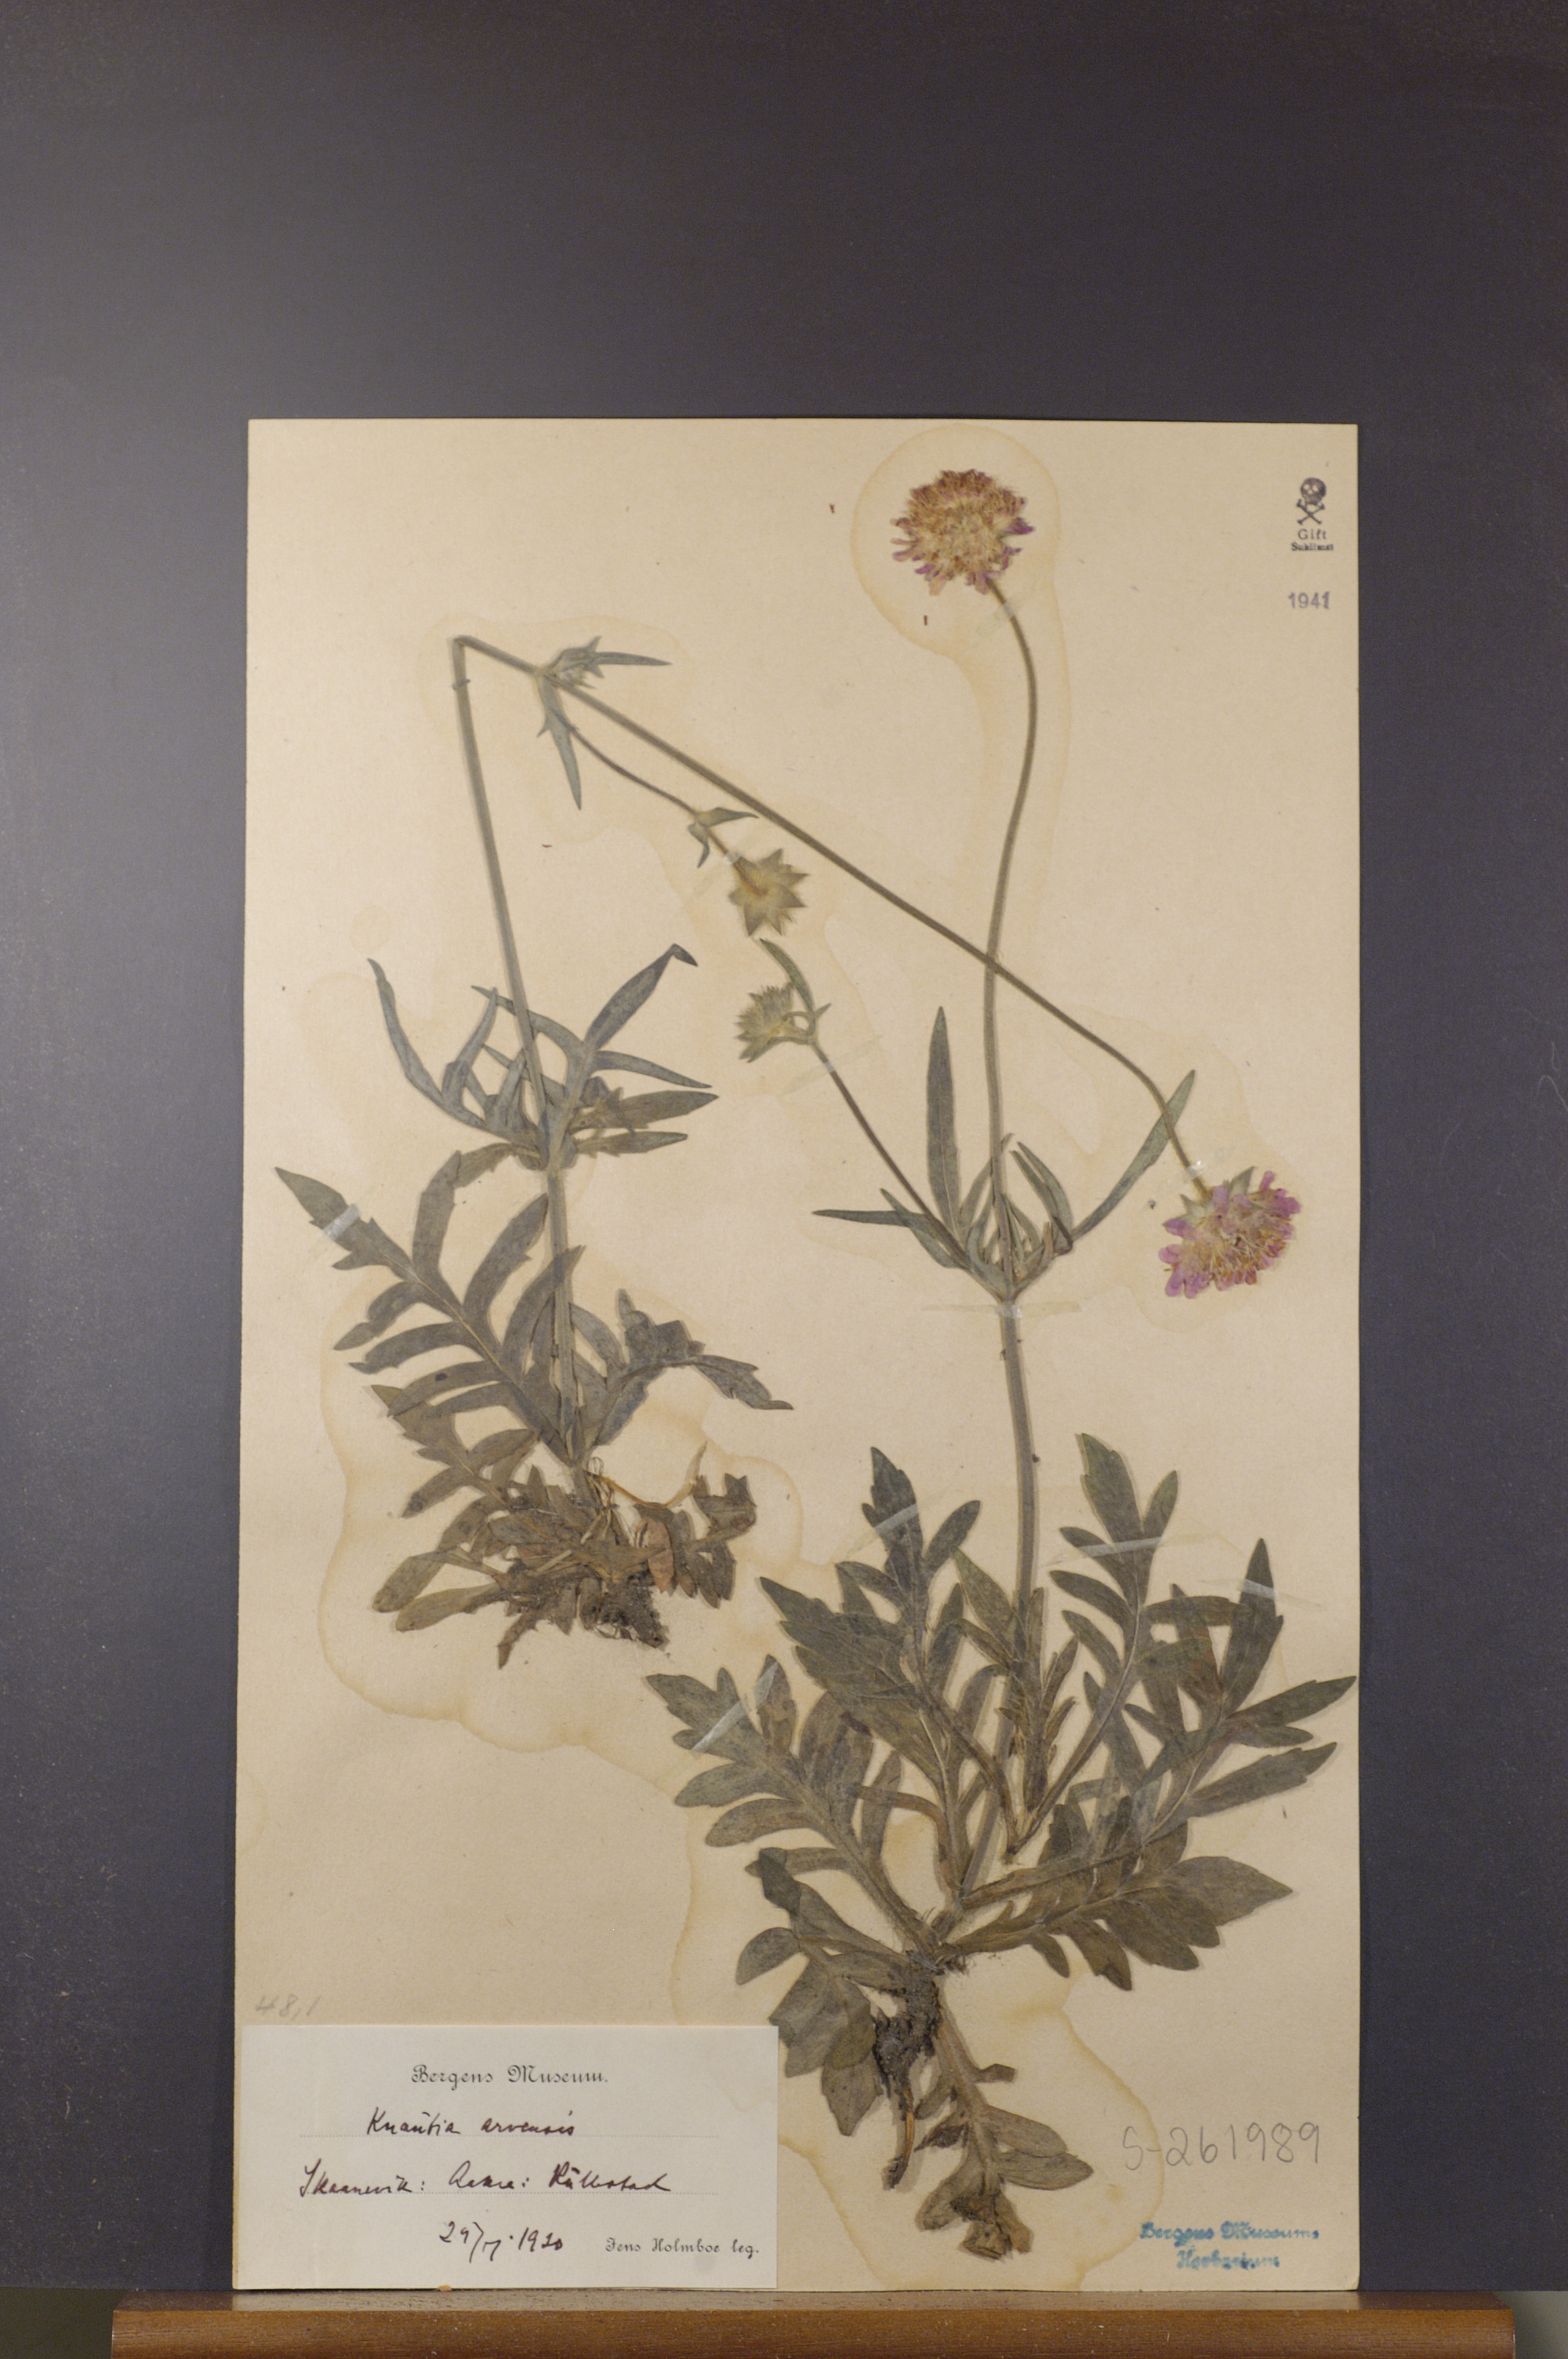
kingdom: Plantae
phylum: Tracheophyta
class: Magnoliopsida
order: Dipsacales
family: Caprifoliaceae
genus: Knautia
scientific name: Knautia arvensis
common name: Field scabiosa
